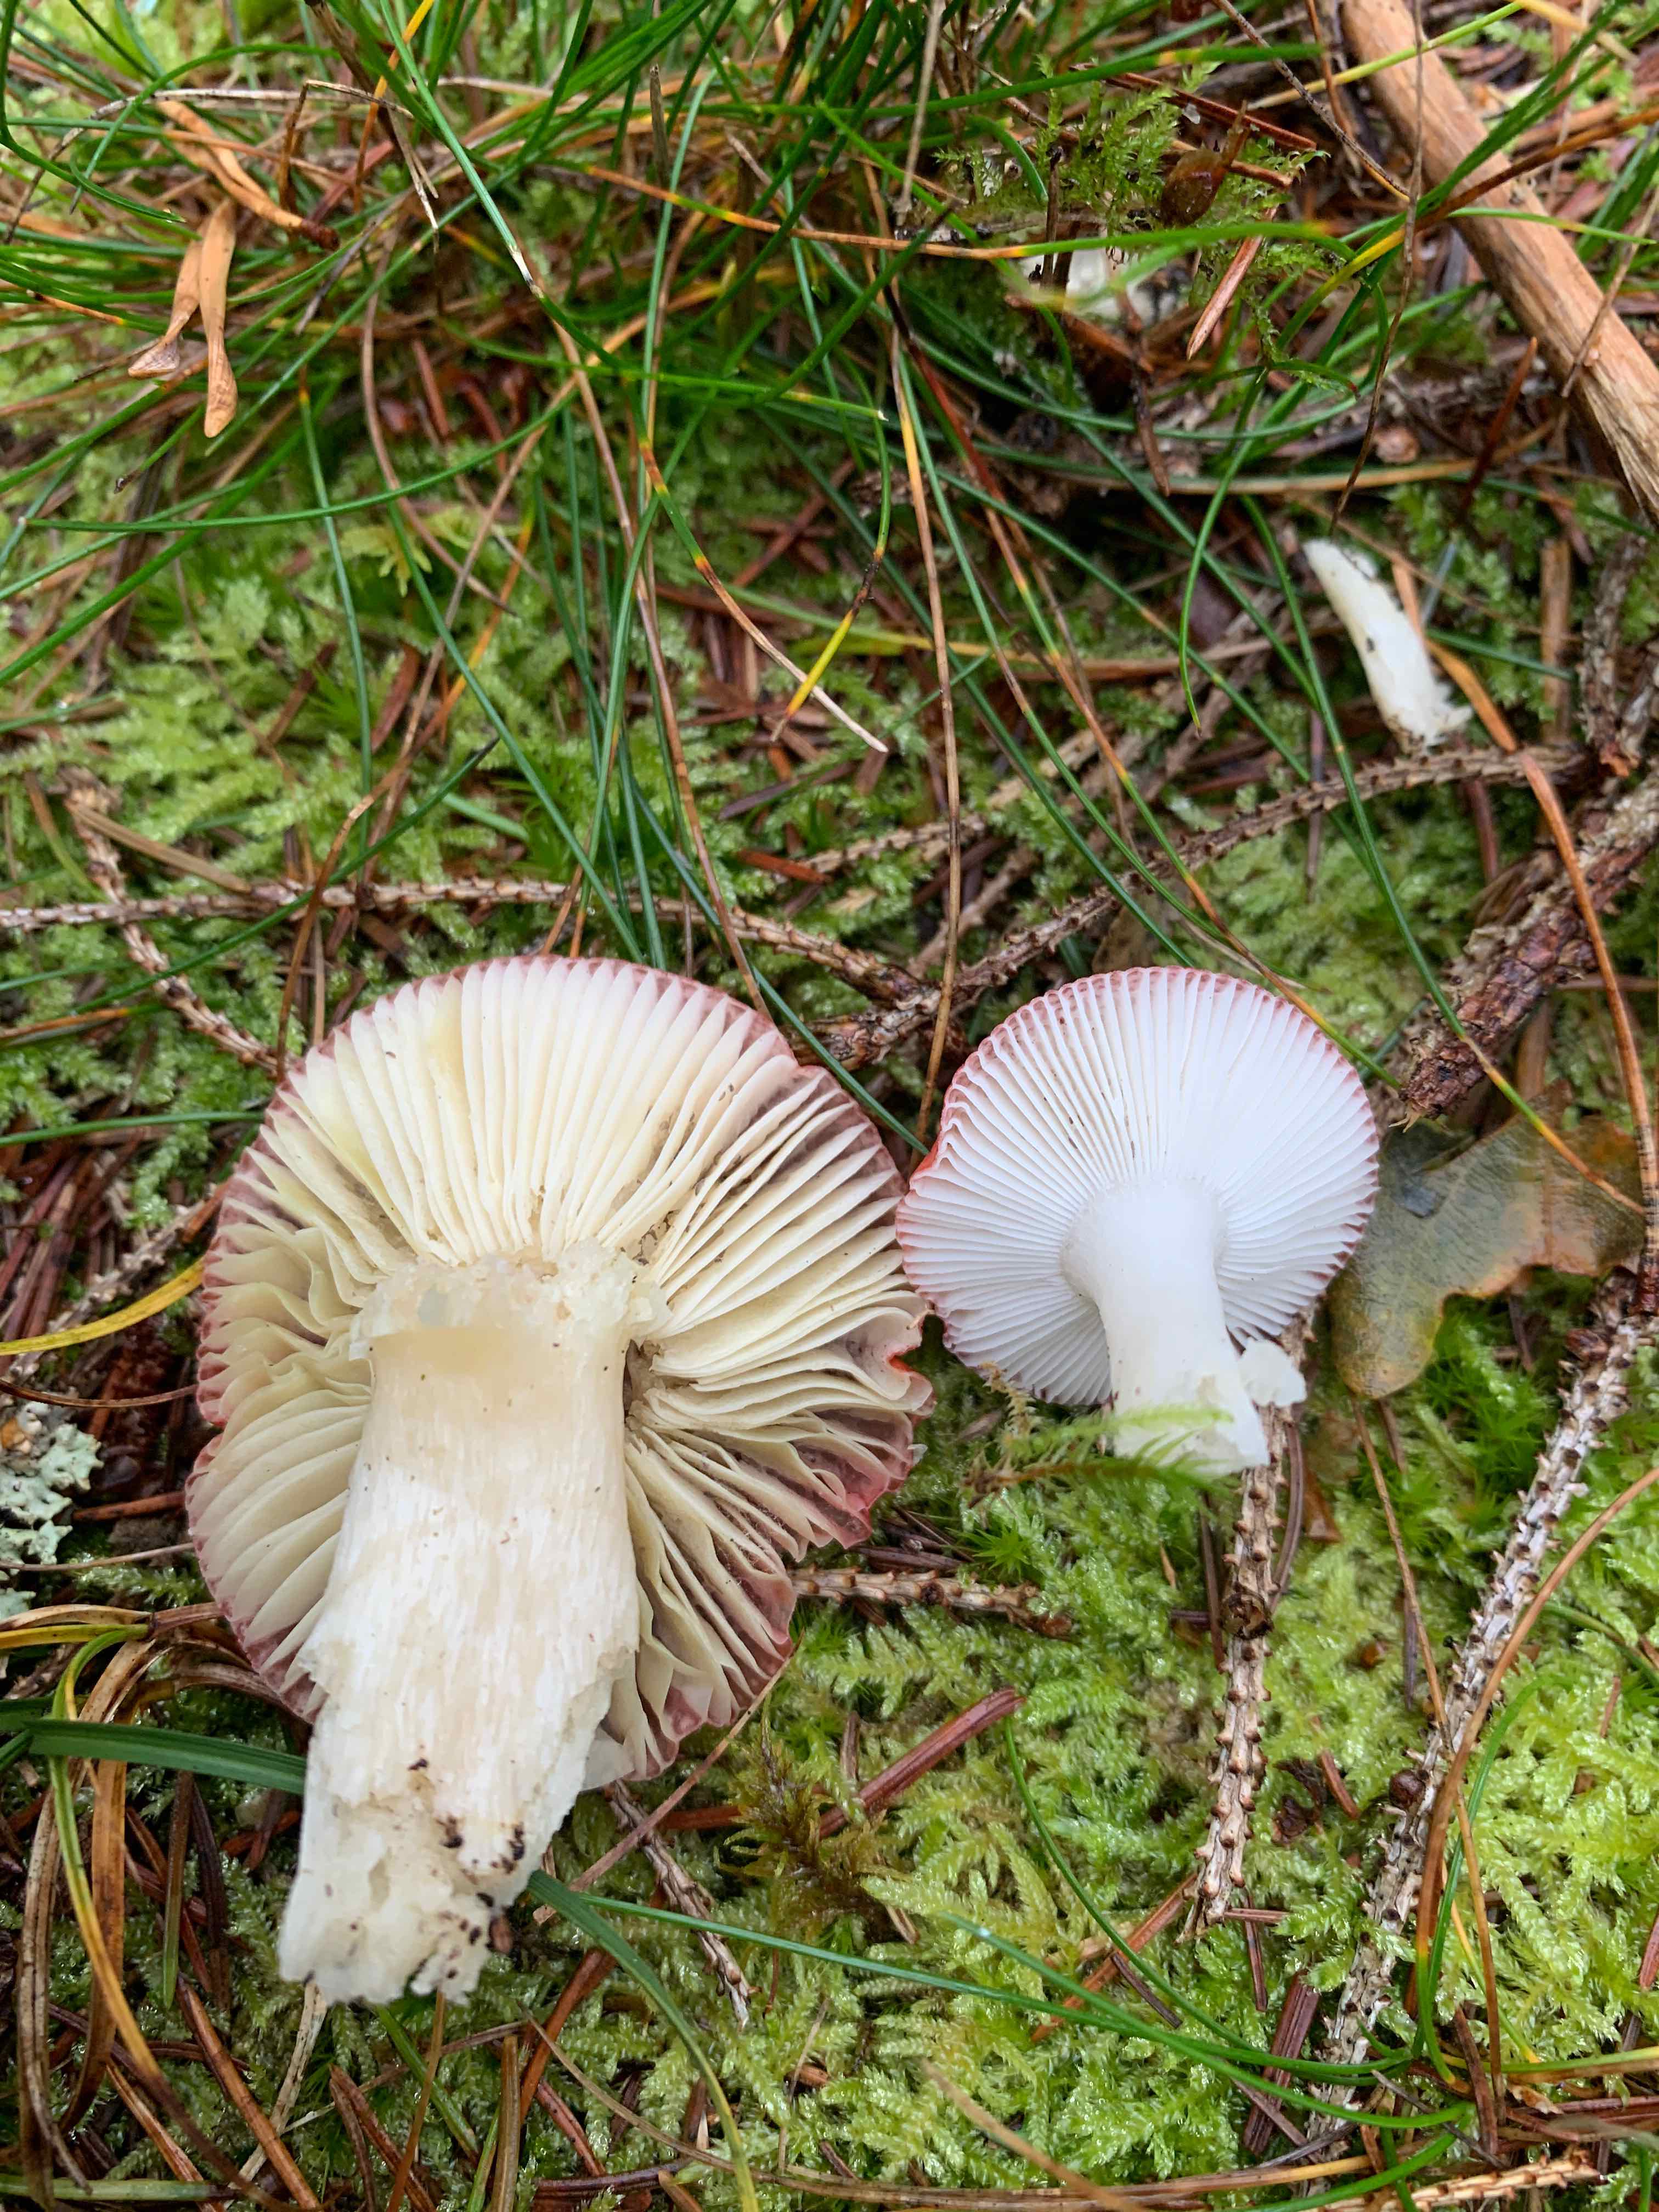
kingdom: Fungi
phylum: Basidiomycota
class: Agaricomycetes
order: Russulales
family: Russulaceae
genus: Russula
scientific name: Russula
